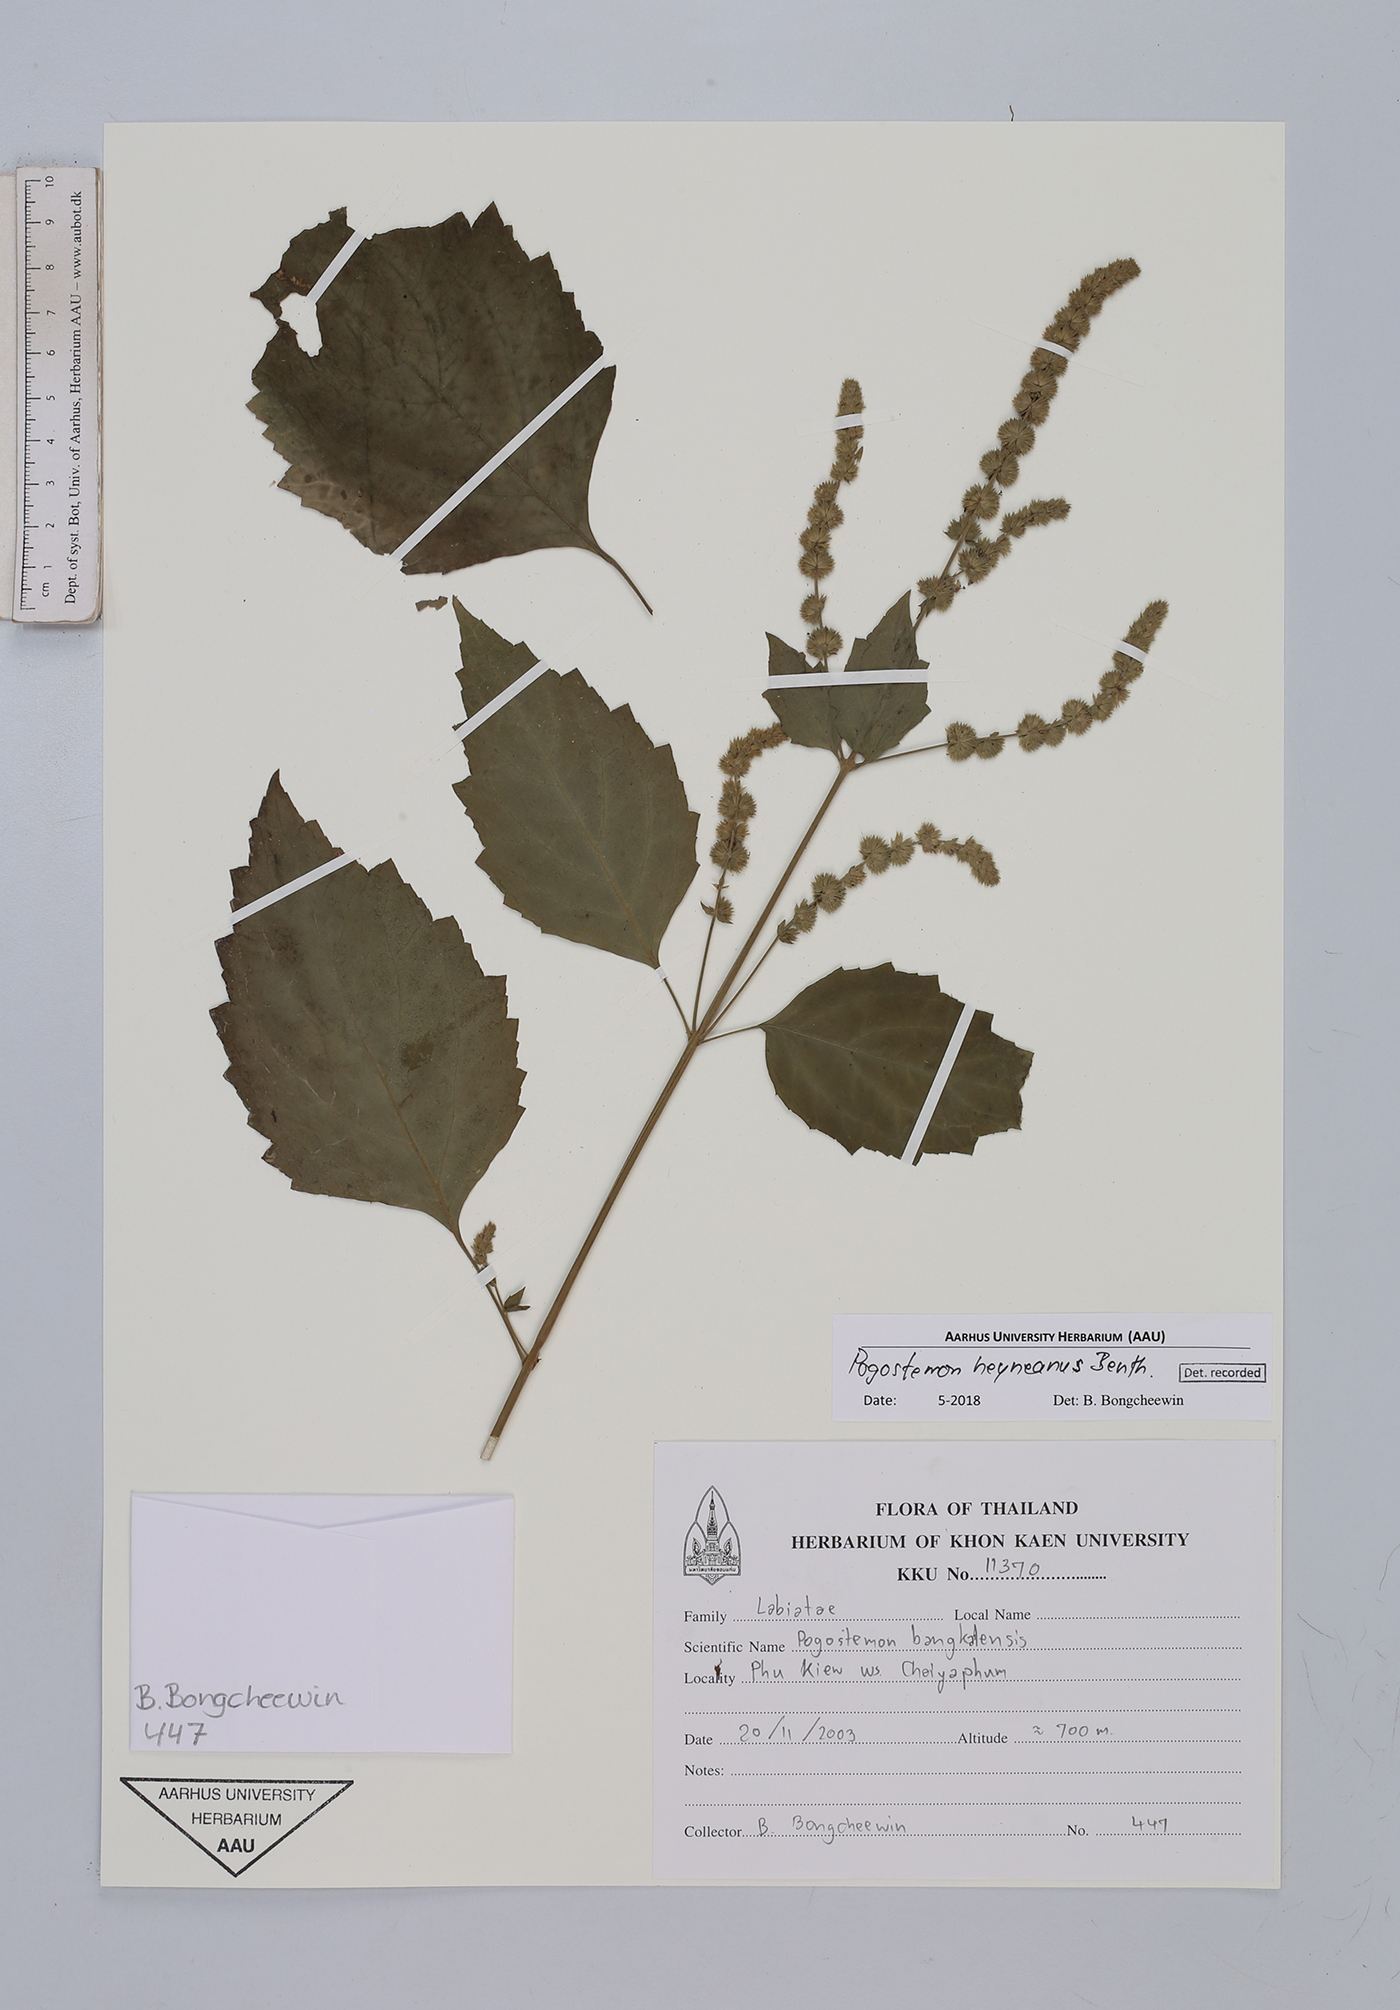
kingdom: Plantae
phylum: Tracheophyta
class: Magnoliopsida
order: Lamiales
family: Lamiaceae
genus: Pogostemon
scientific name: Pogostemon heyneanus
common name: Indian patchouli
